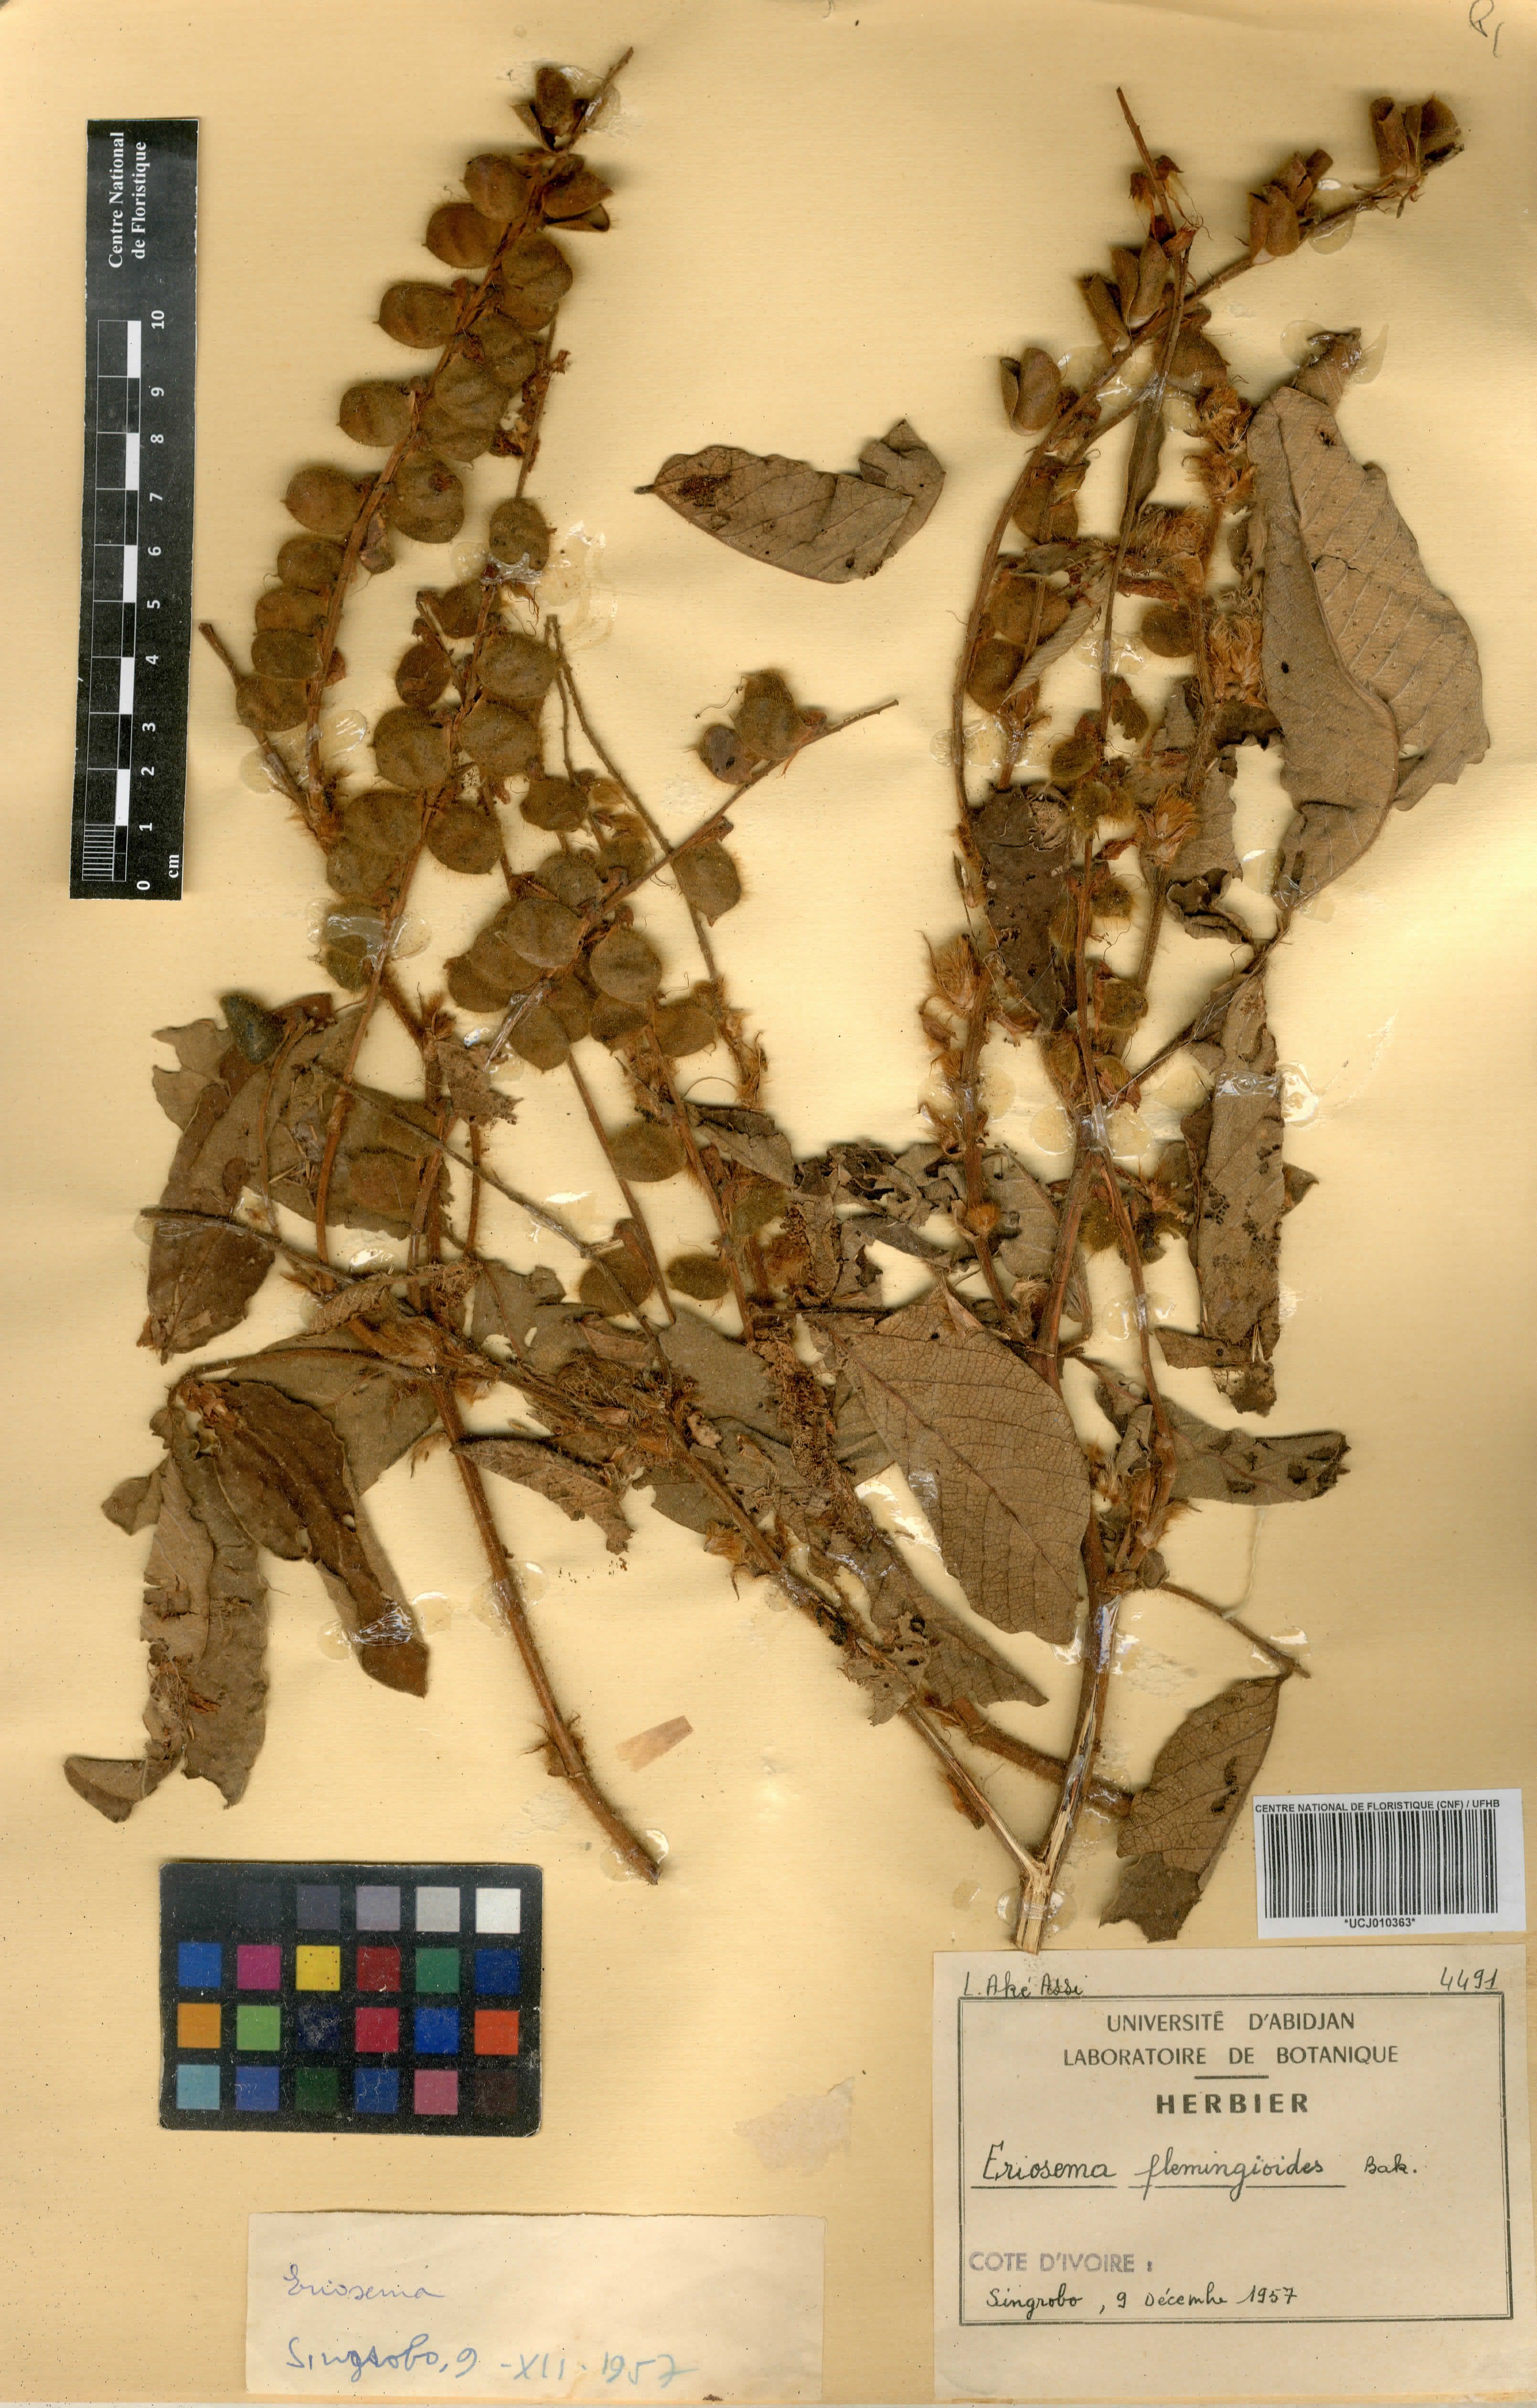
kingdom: Plantae
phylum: Tracheophyta
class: Magnoliopsida
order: Fabales
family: Fabaceae
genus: Eriosema
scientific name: Eriosema flemingioides
